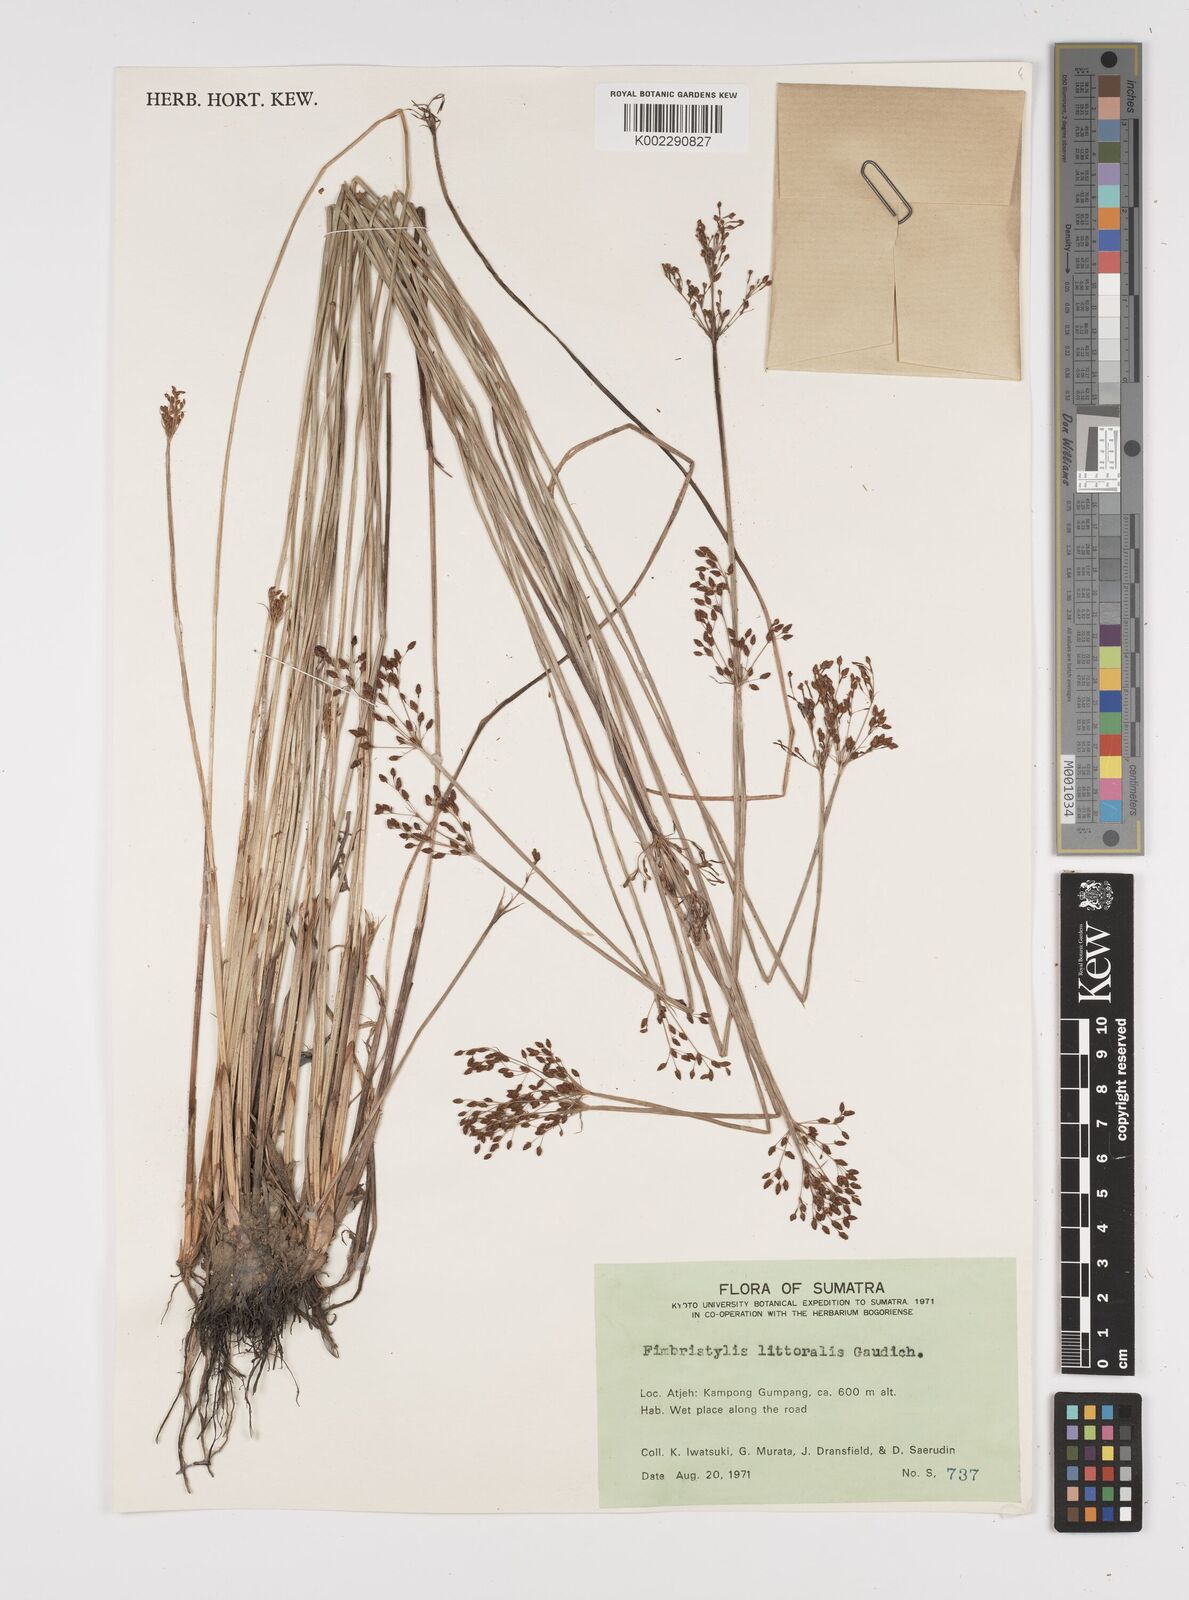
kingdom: Plantae
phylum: Tracheophyta
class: Liliopsida
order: Poales
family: Cyperaceae
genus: Fimbristylis
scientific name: Fimbristylis littoralis
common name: Fimbry
